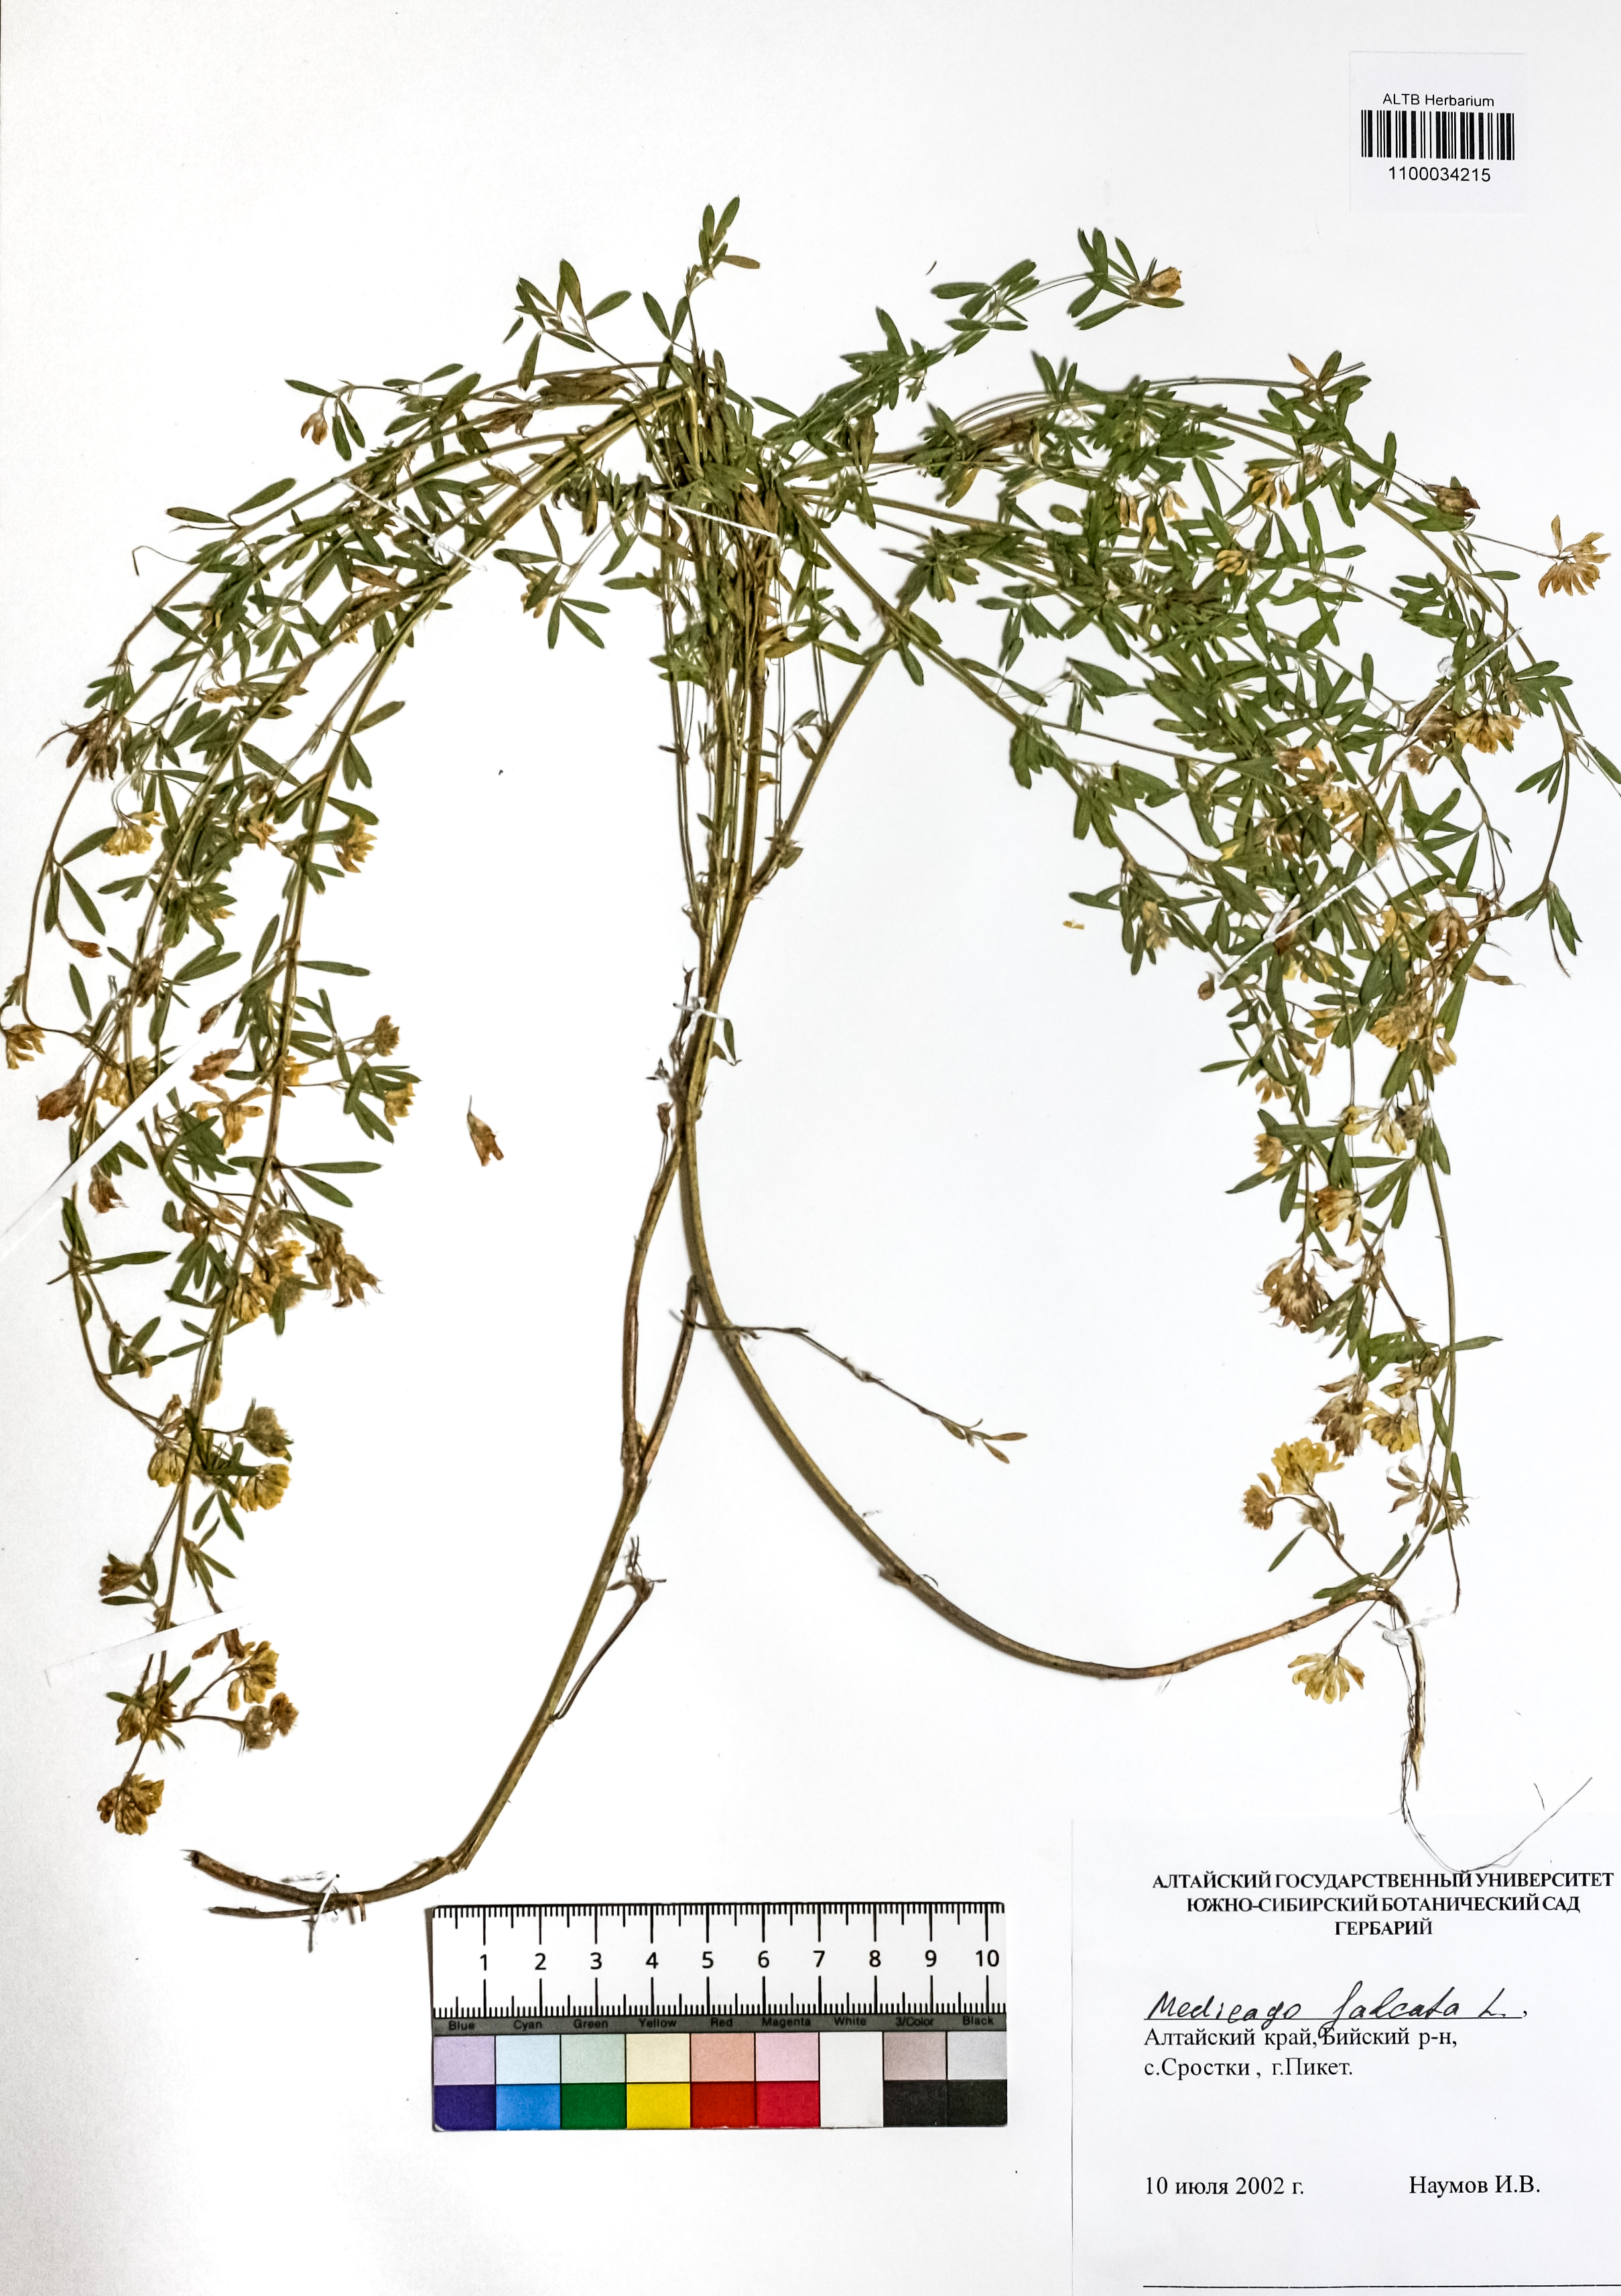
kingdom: Plantae
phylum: Tracheophyta
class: Magnoliopsida
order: Fabales
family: Fabaceae
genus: Medicago
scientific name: Medicago falcata
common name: Sickle medick
